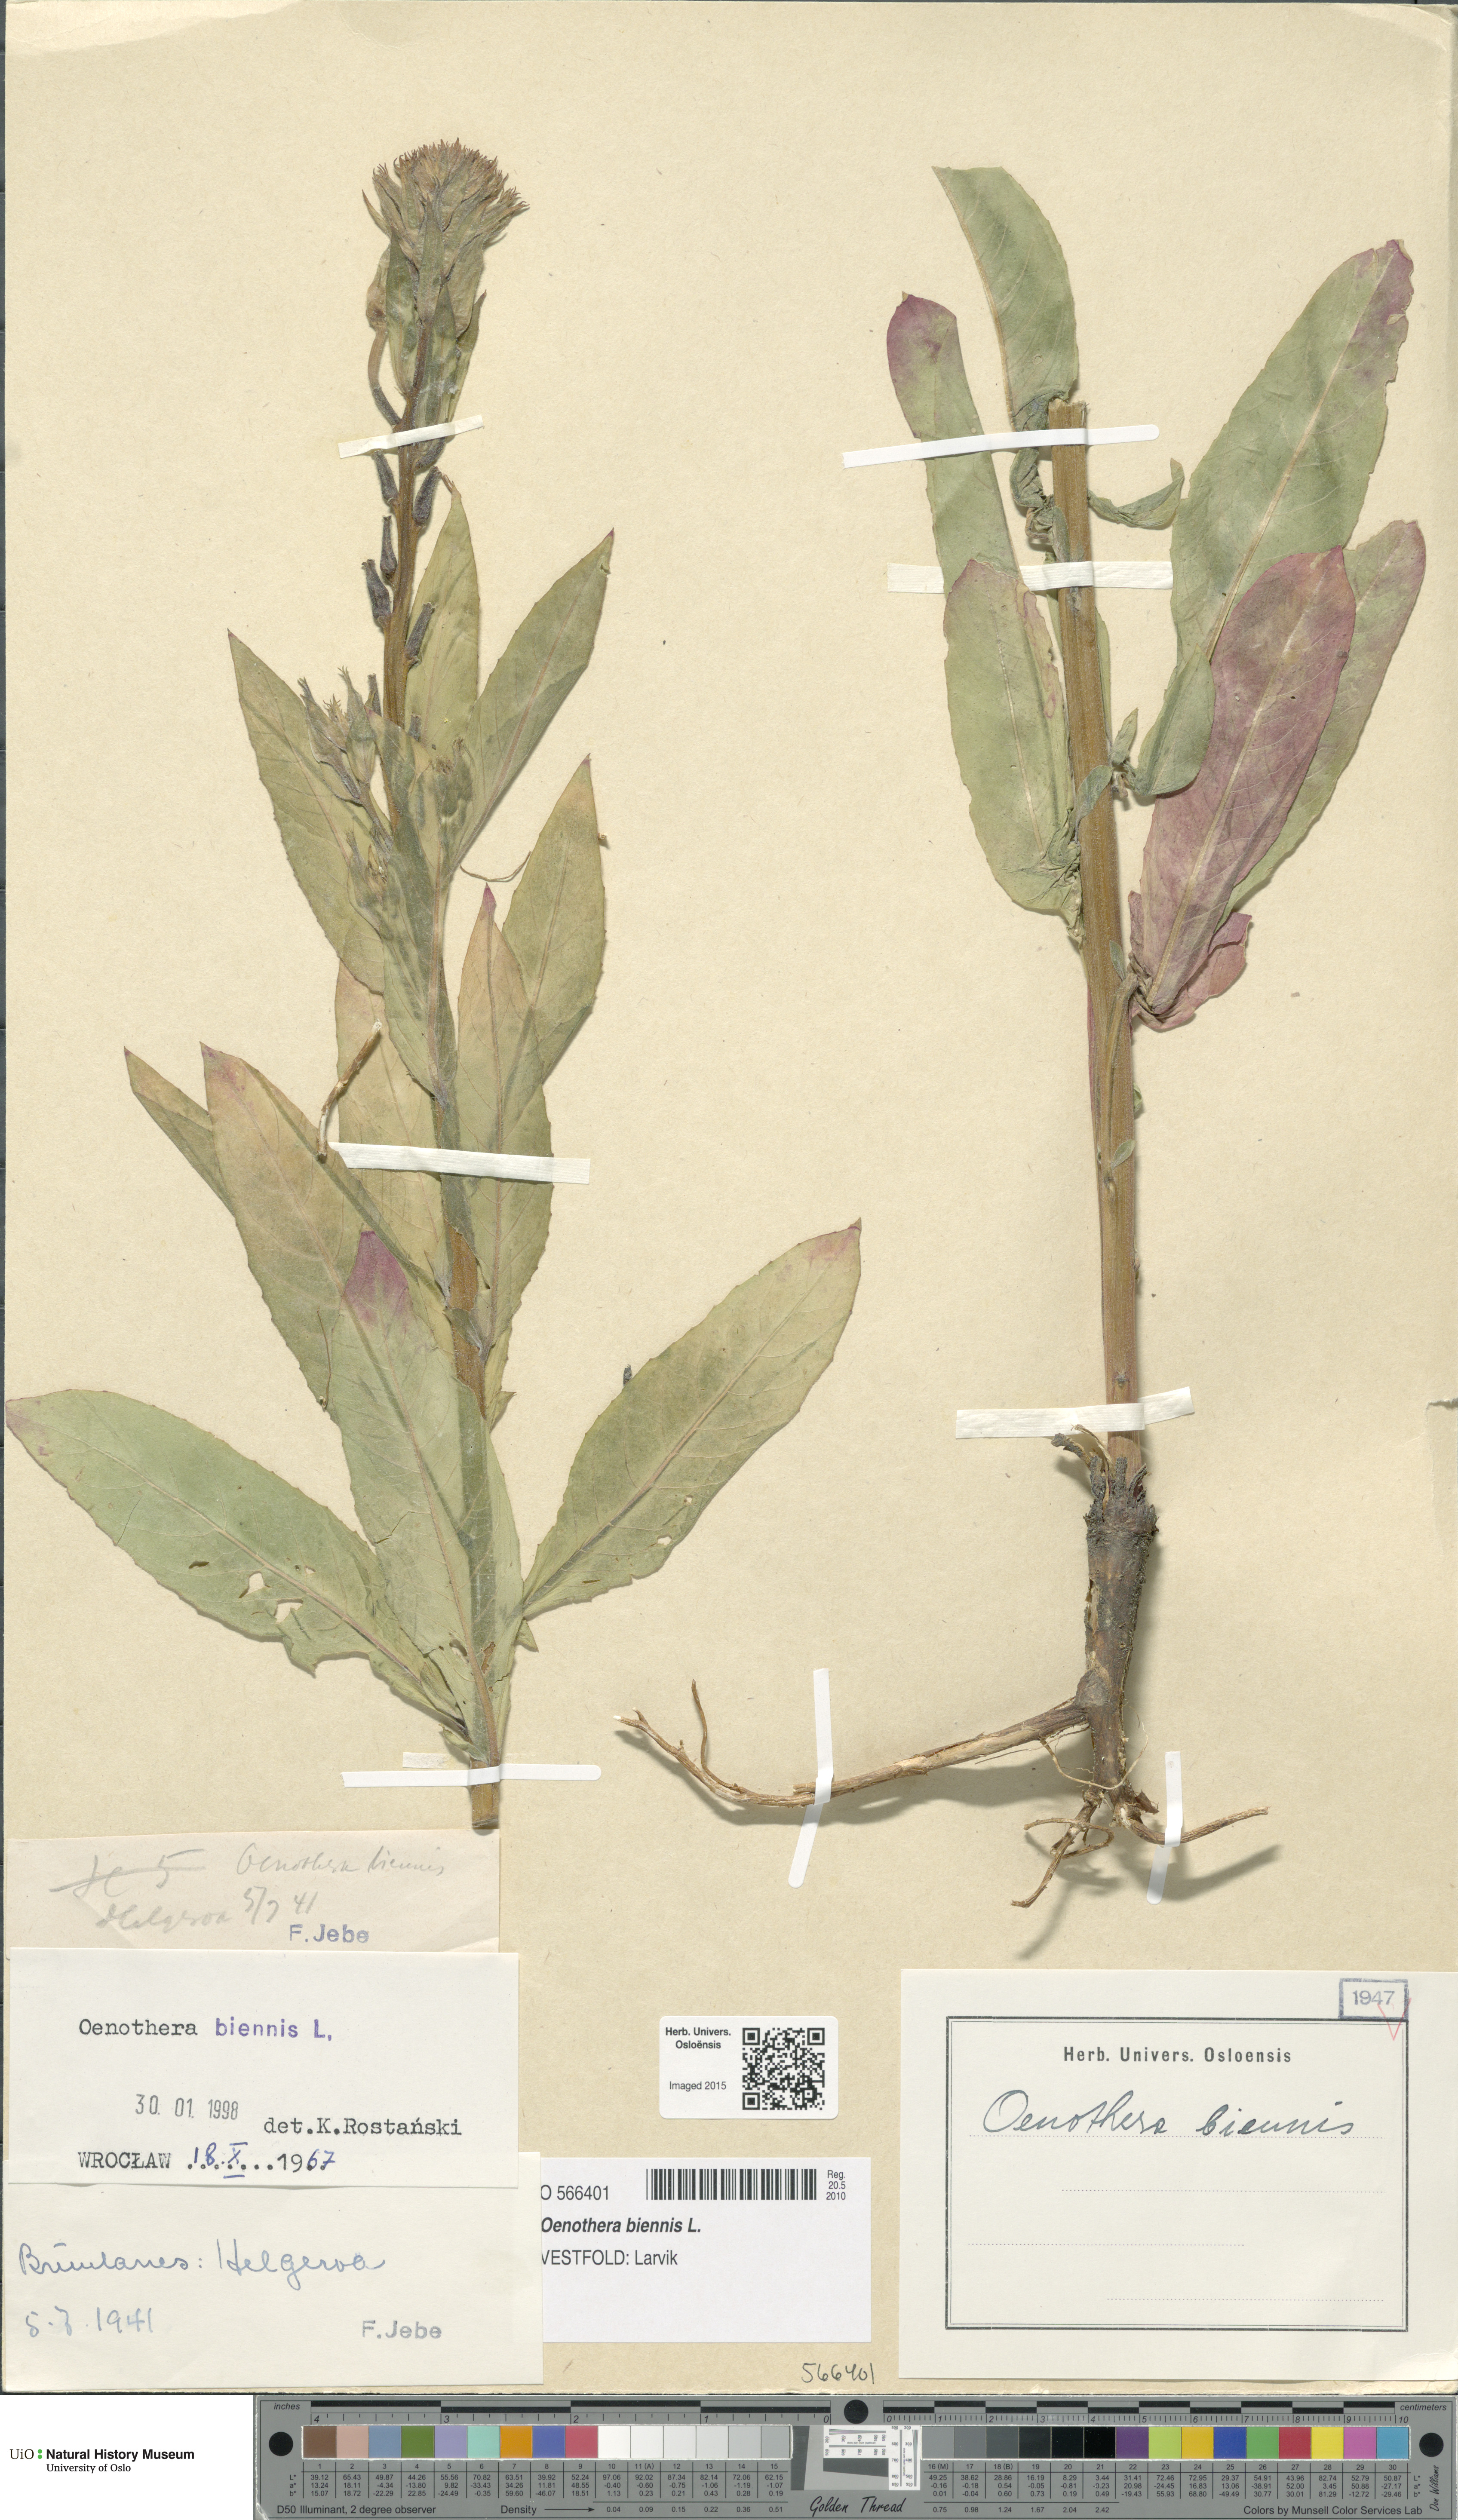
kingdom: Plantae
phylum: Tracheophyta
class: Magnoliopsida
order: Myrtales
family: Onagraceae
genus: Oenothera
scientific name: Oenothera biennis
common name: Common evening-primrose
